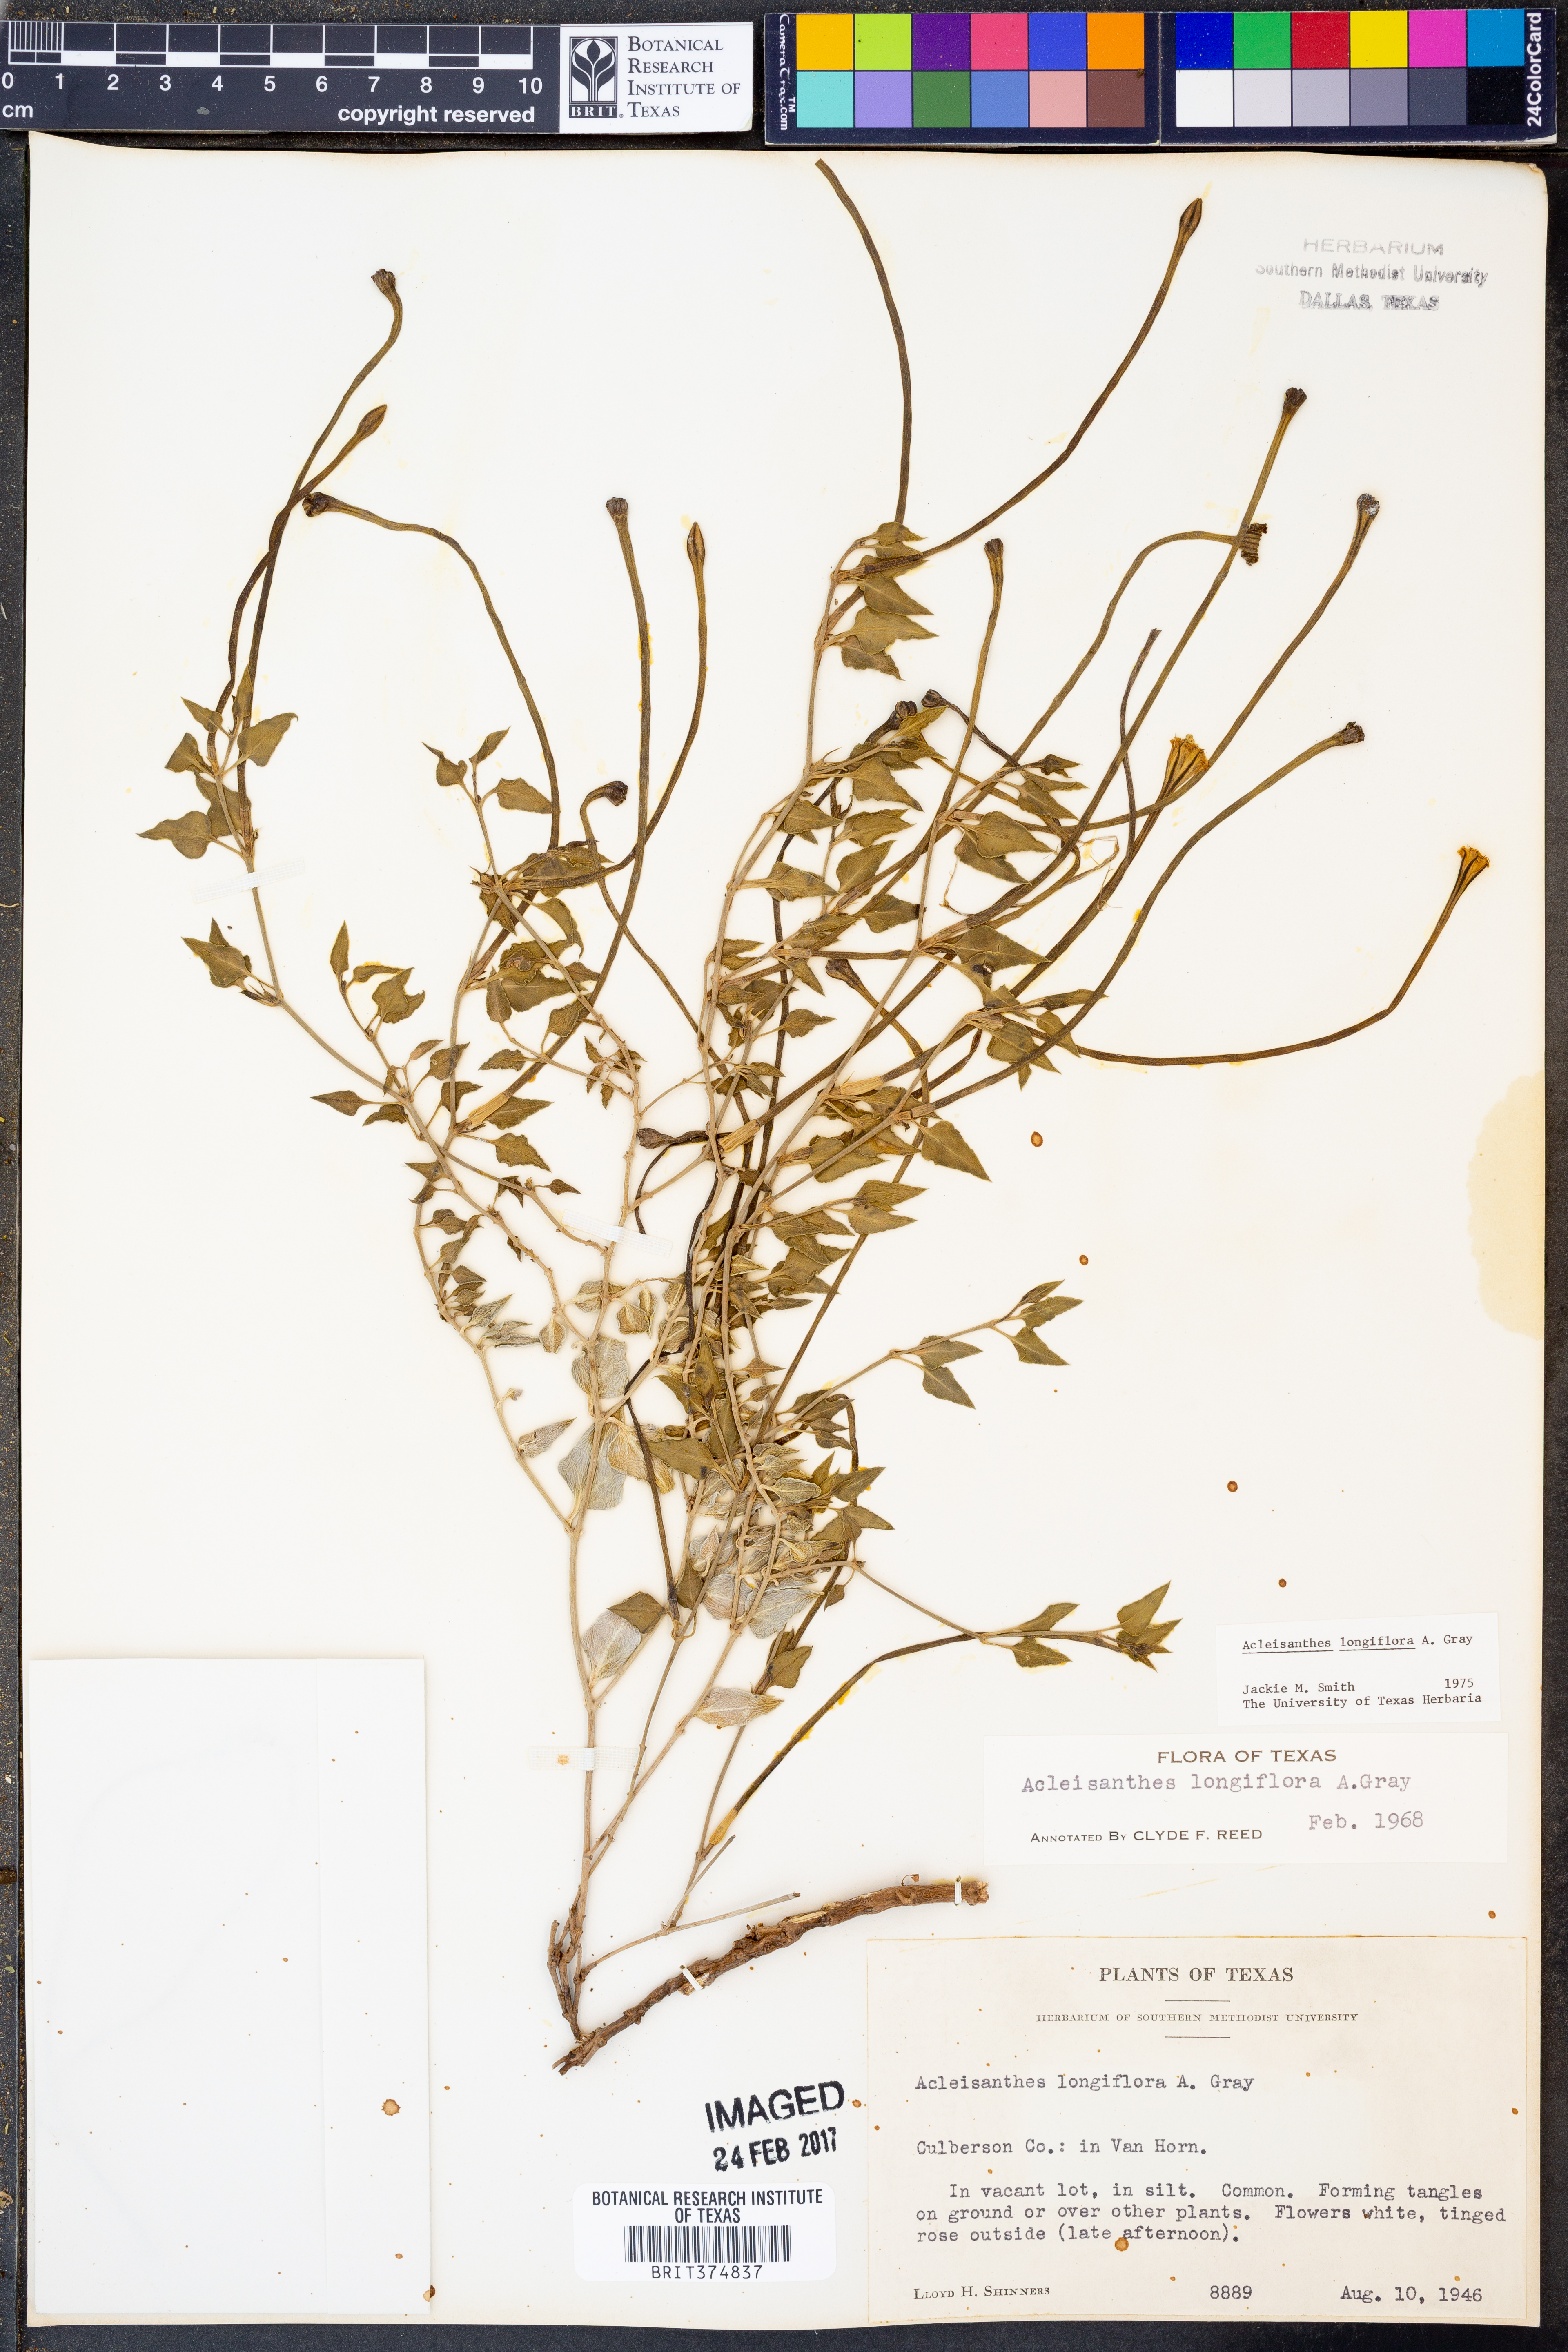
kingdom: Plantae
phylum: Tracheophyta
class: Magnoliopsida
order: Caryophyllales
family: Nyctaginaceae
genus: Acleisanthes
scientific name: Acleisanthes longiflora
